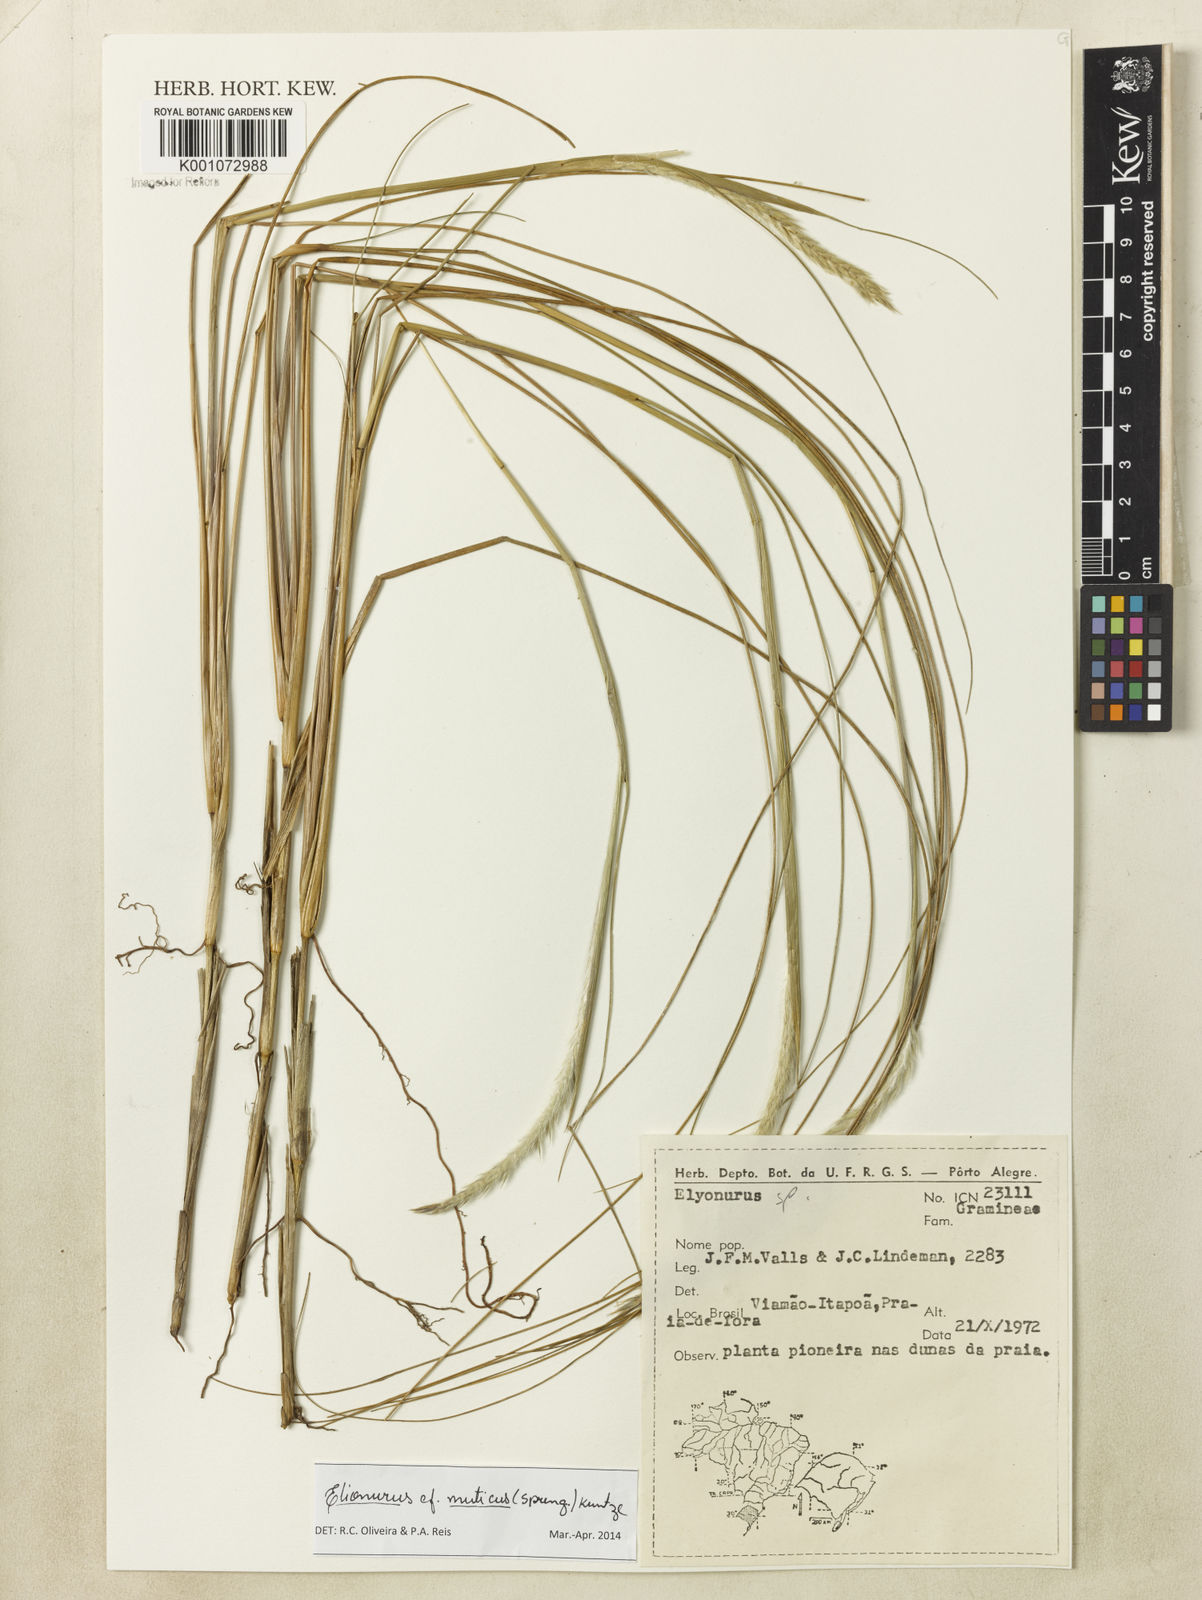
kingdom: Plantae
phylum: Tracheophyta
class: Liliopsida
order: Poales
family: Poaceae
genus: Elionurus
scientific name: Elionurus muticus
